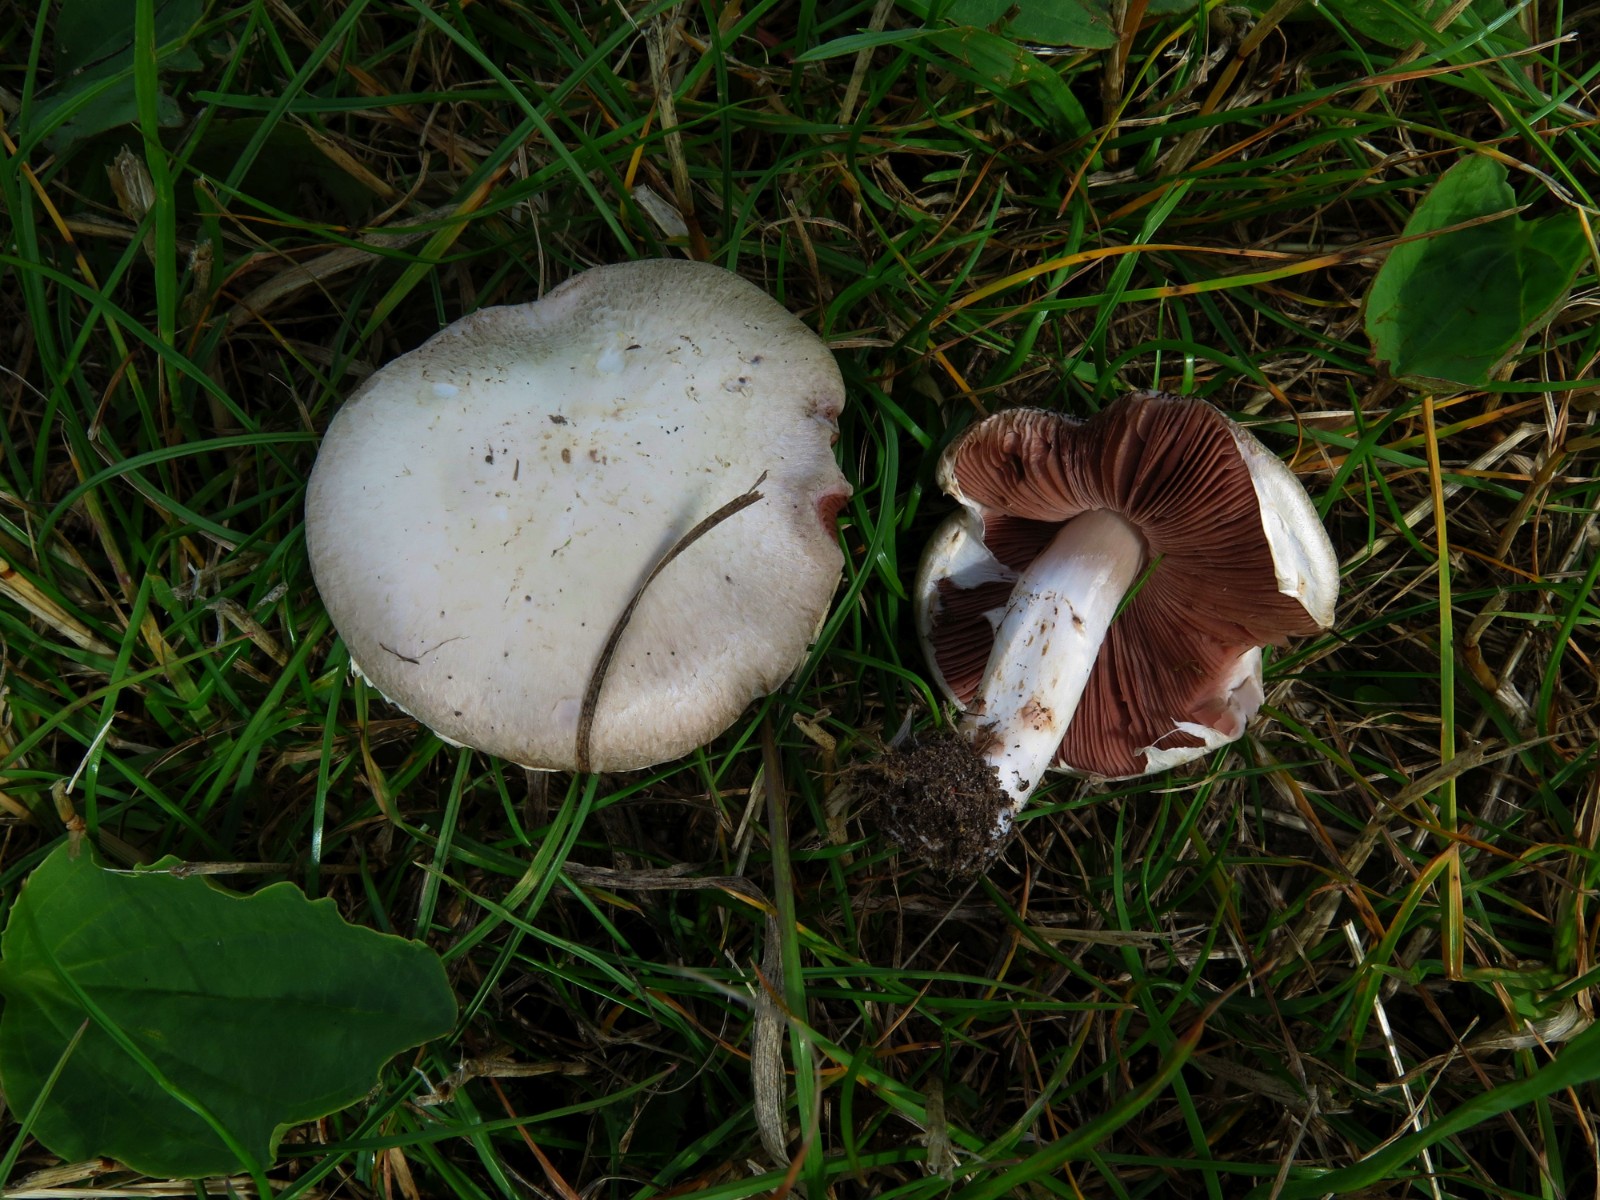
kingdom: Fungi
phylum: Basidiomycota
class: Agaricomycetes
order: Agaricales
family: Agaricaceae
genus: Agaricus
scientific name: Agaricus campestris
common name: mark-champignon
